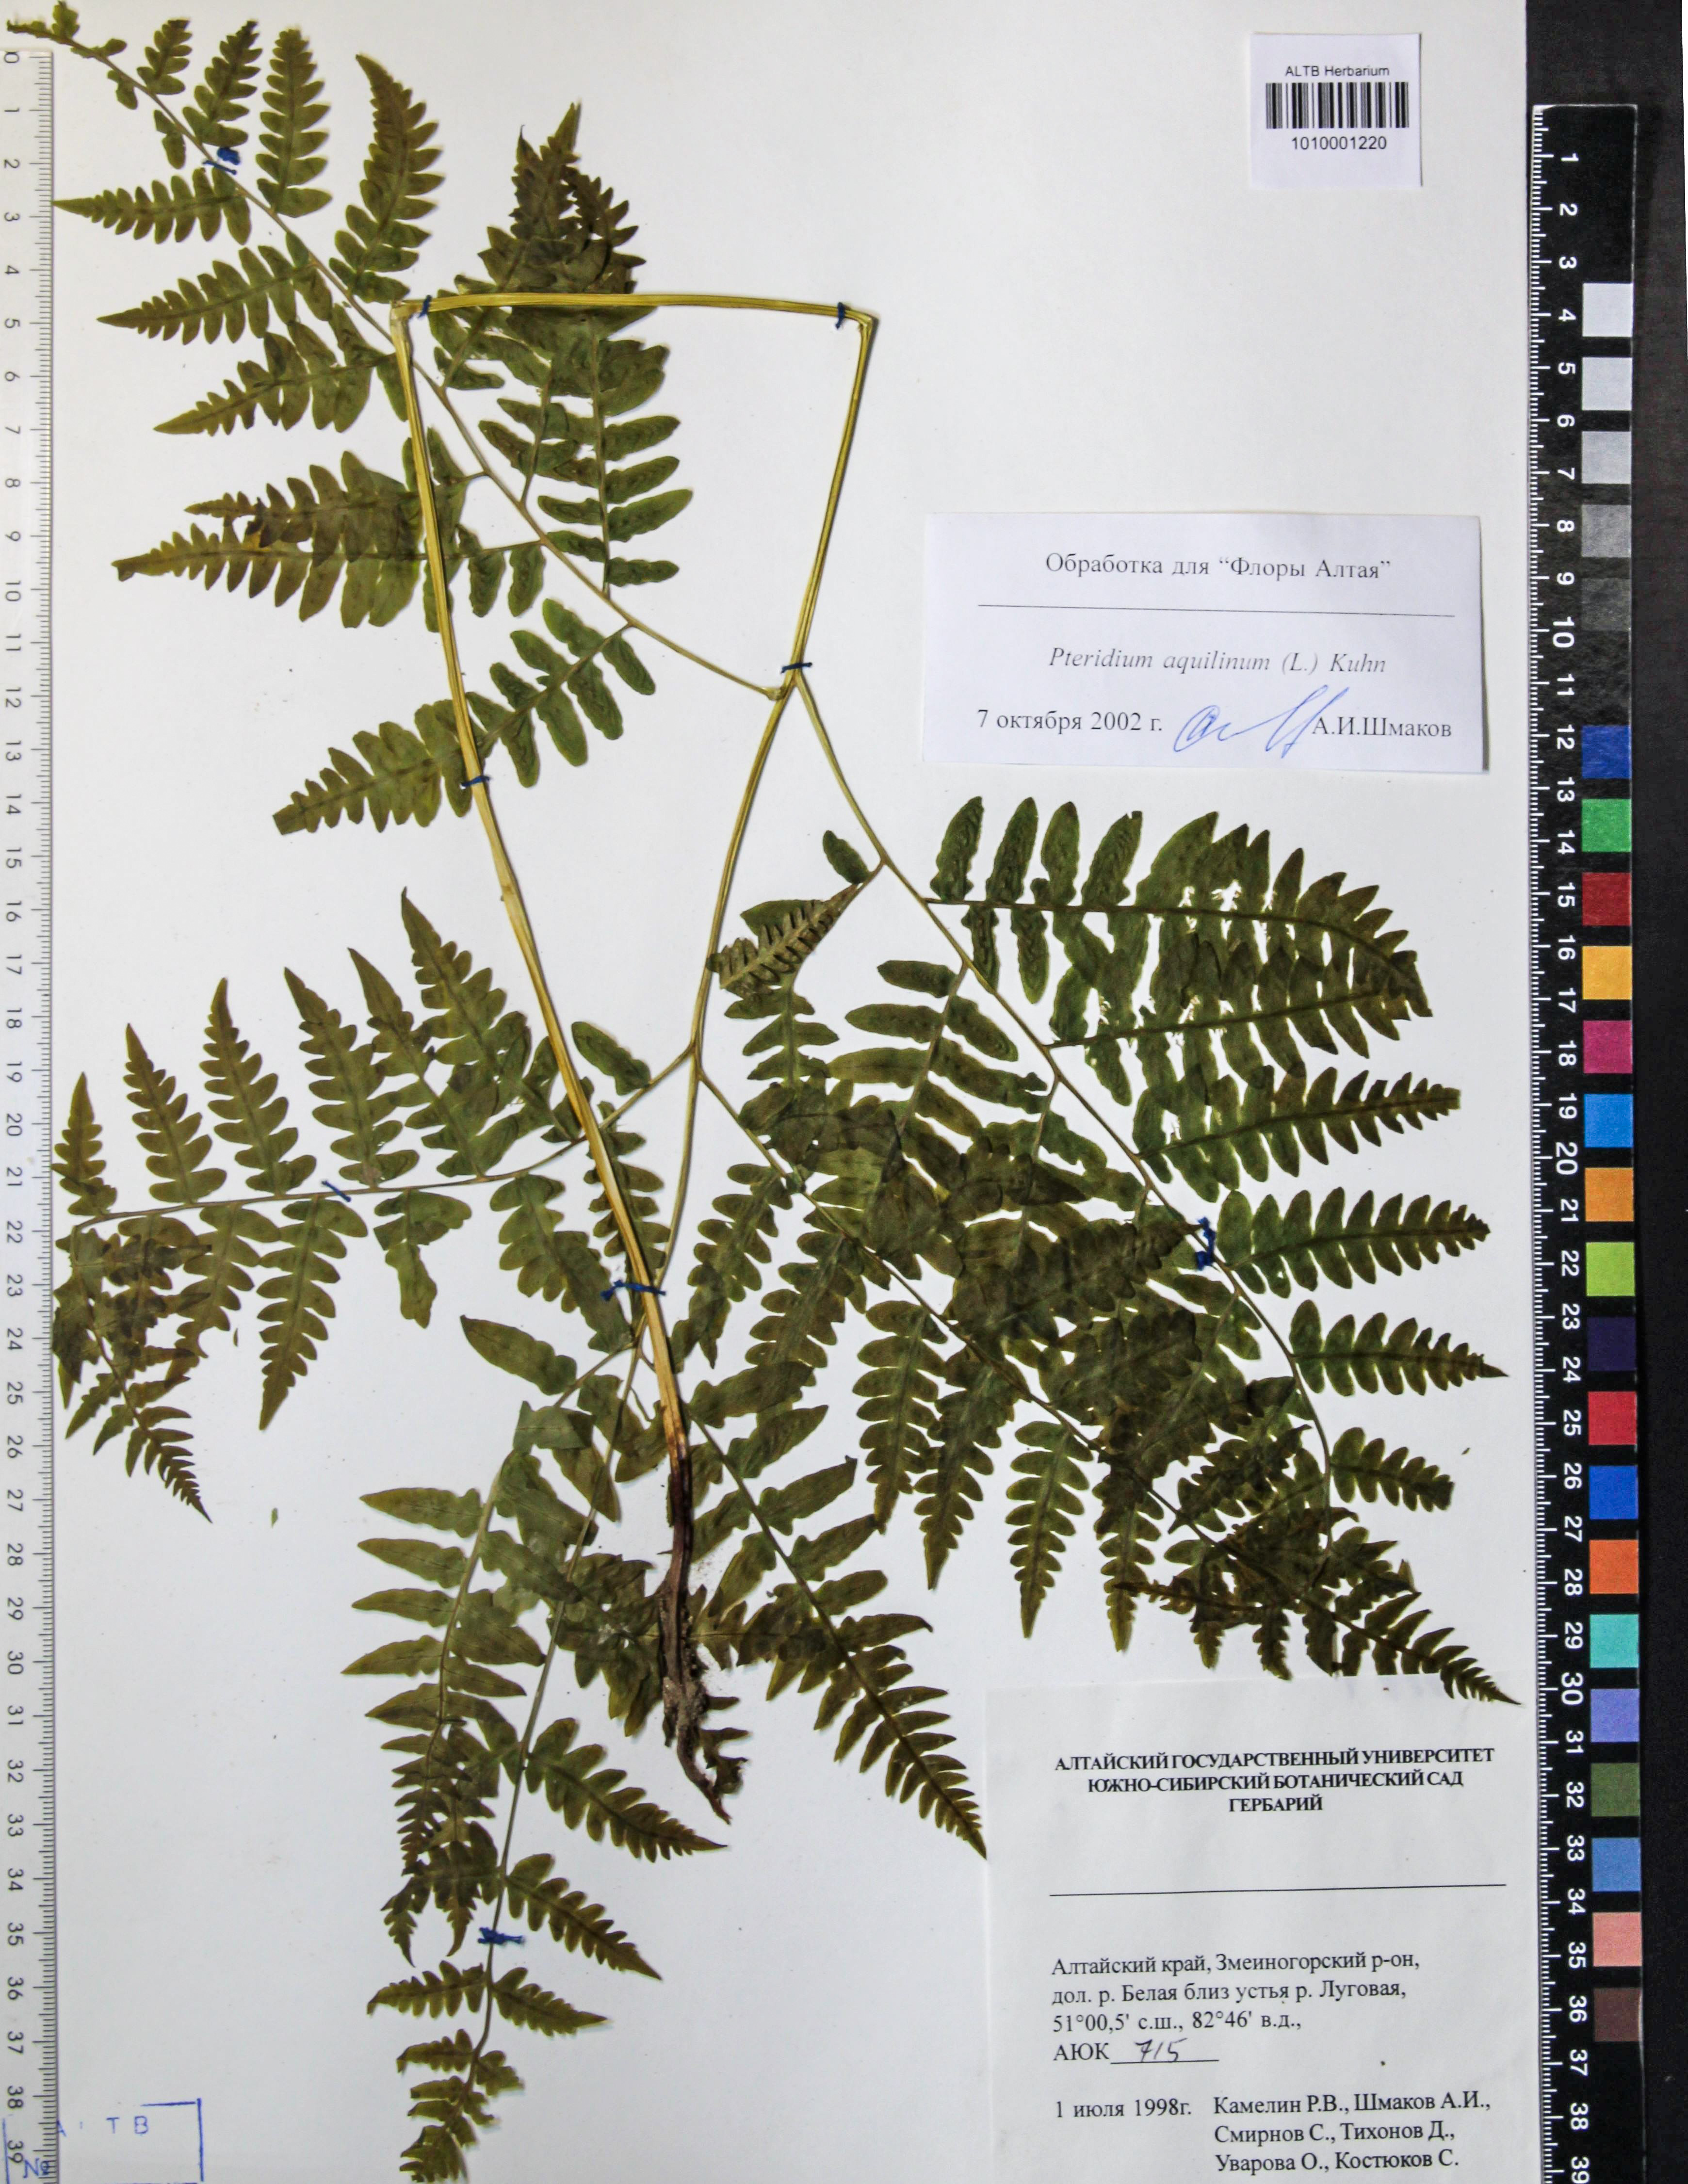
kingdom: Plantae
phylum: Tracheophyta
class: Polypodiopsida
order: Polypodiales
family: Dennstaedtiaceae
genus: Pteridium
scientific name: Pteridium aquilinum
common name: Bracken
